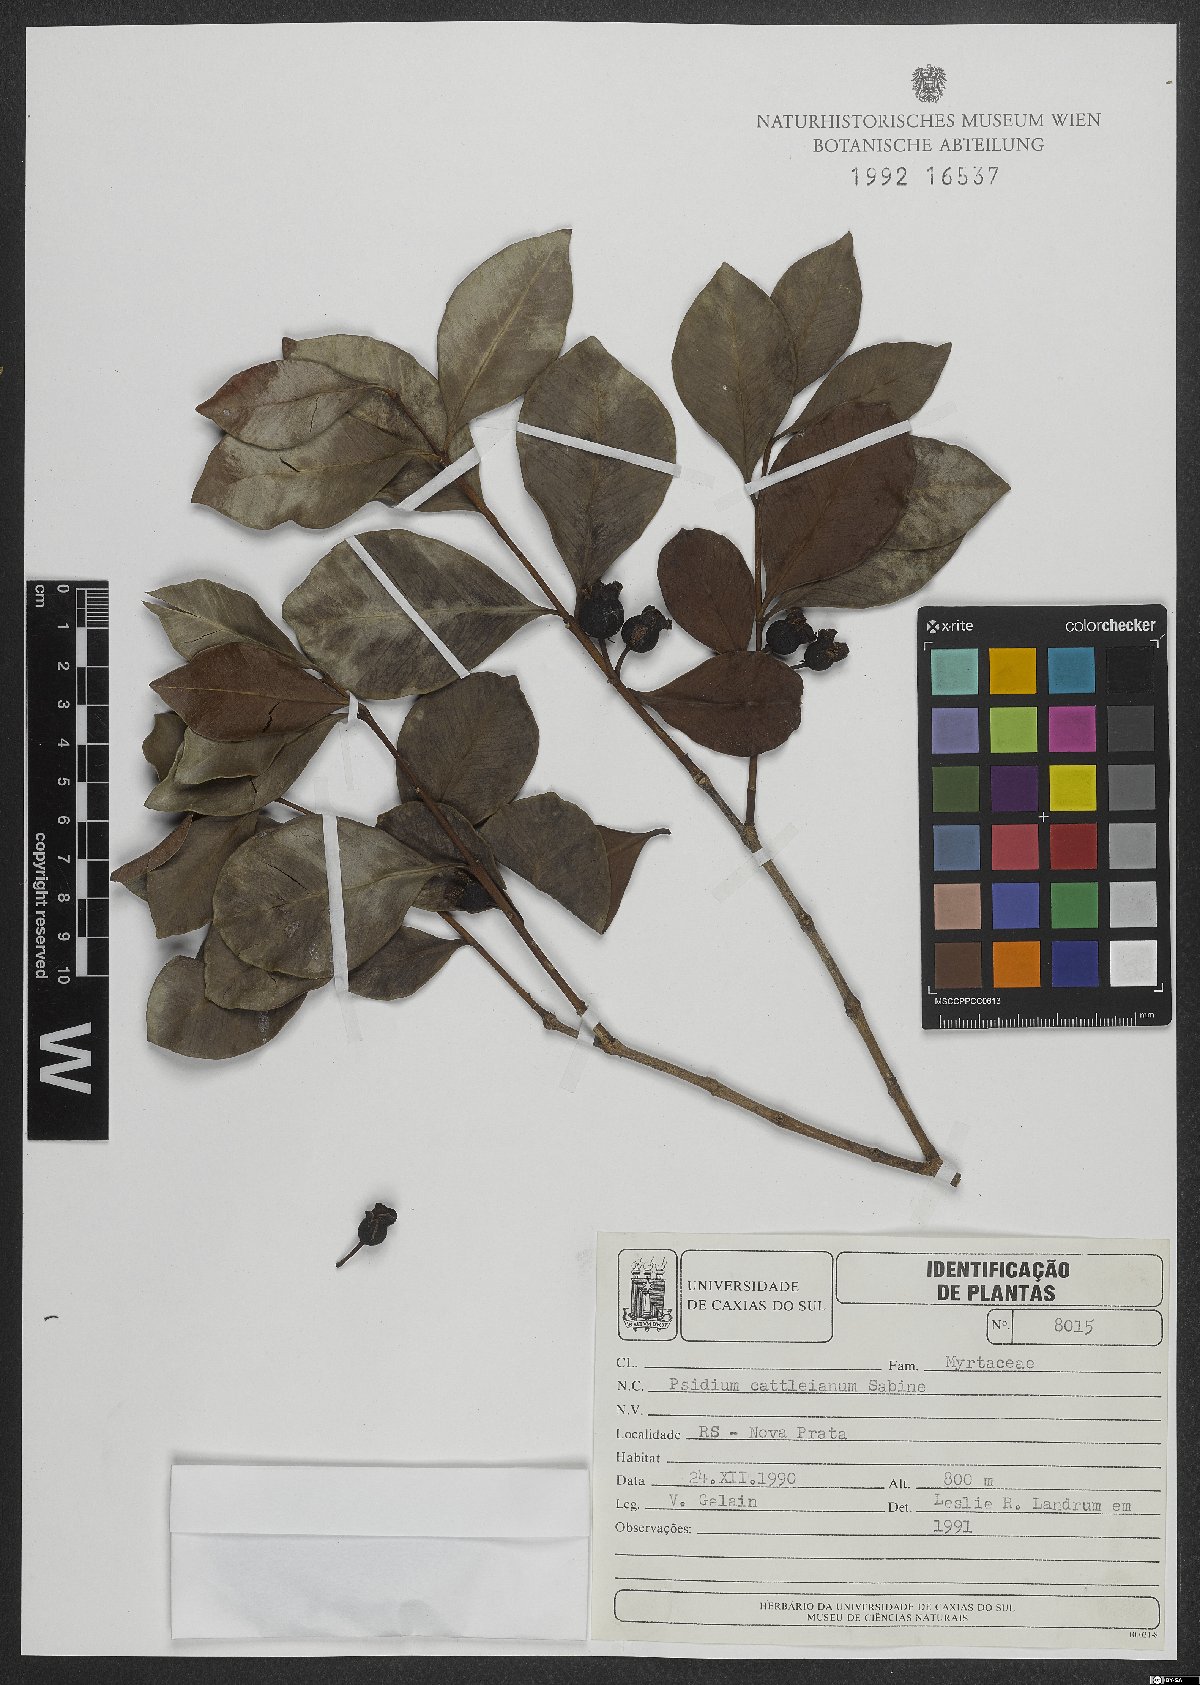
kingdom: Plantae
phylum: Tracheophyta
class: Magnoliopsida
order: Myrtales
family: Myrtaceae
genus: Psidium
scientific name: Psidium cattleianum
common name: Strawberry guava
